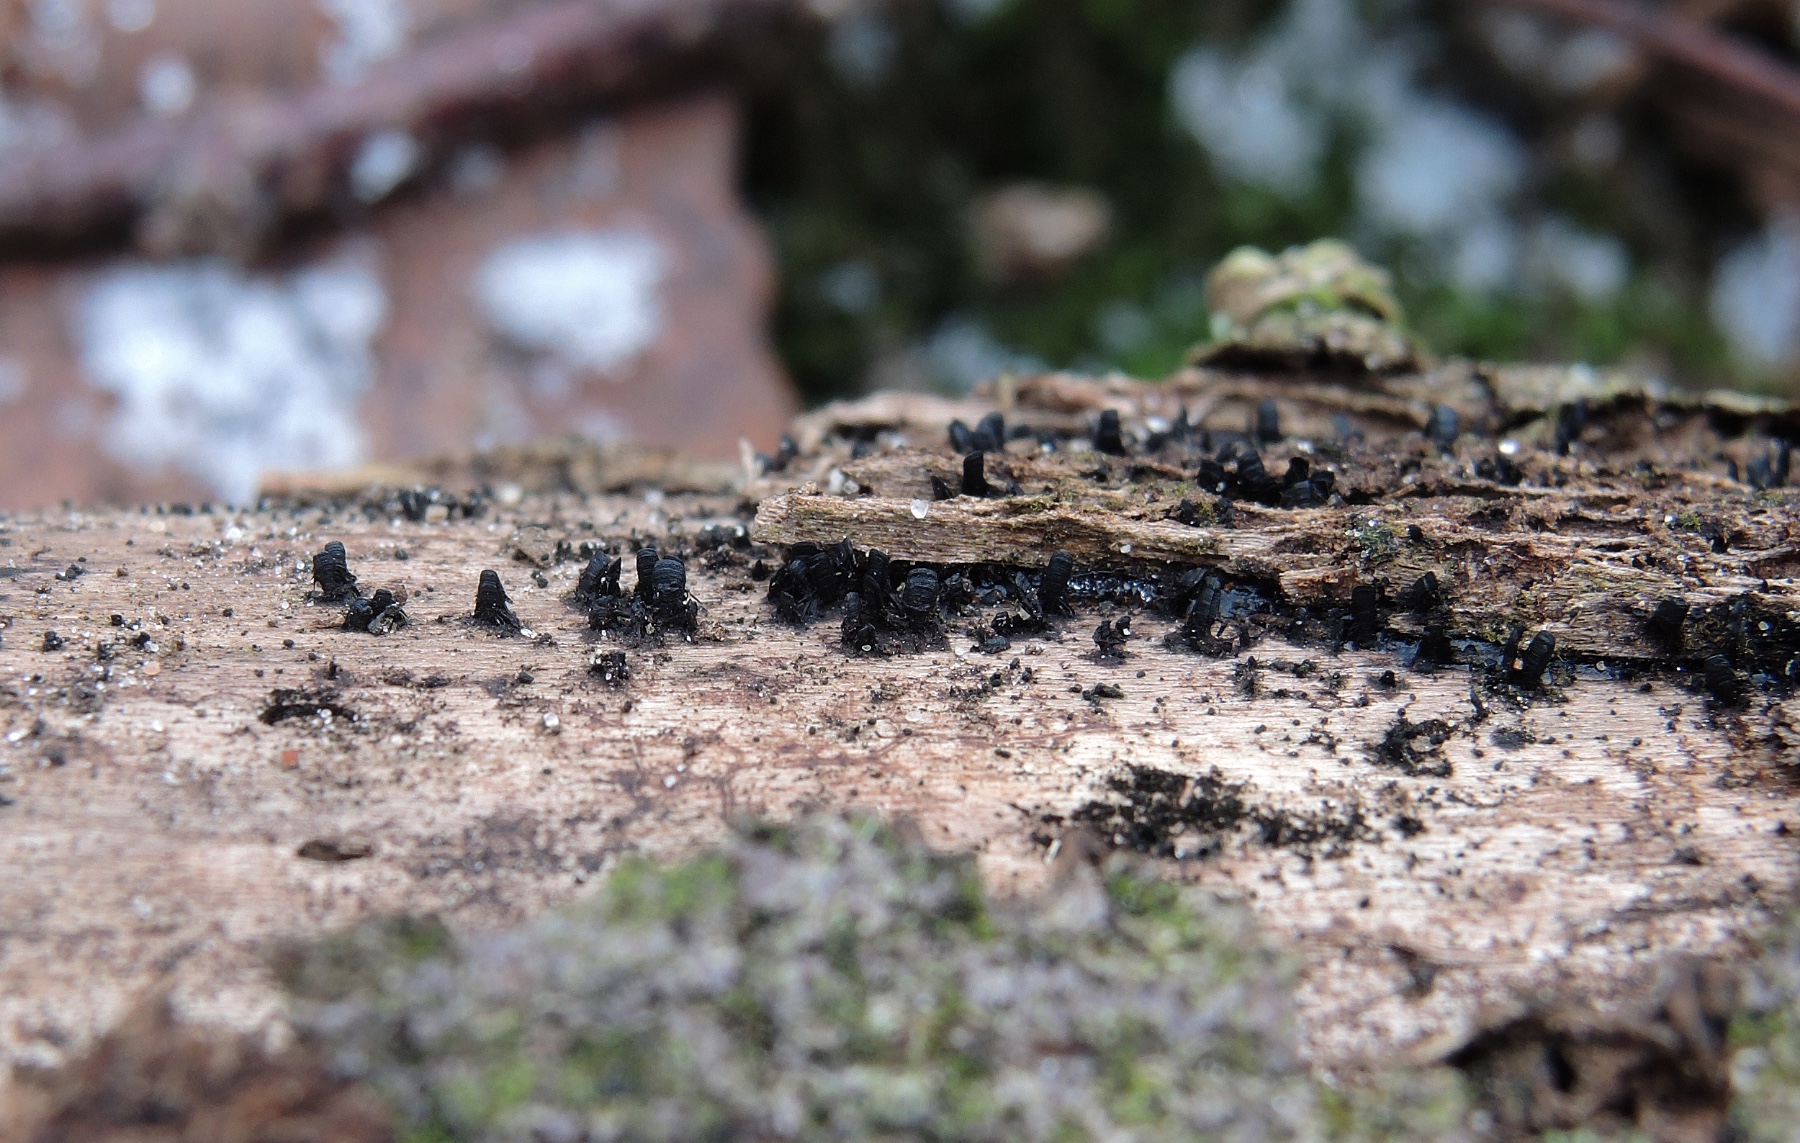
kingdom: Fungi
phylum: Ascomycota
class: Eurotiomycetes
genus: Glyphium
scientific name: Glyphium elatum
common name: kuløkse
